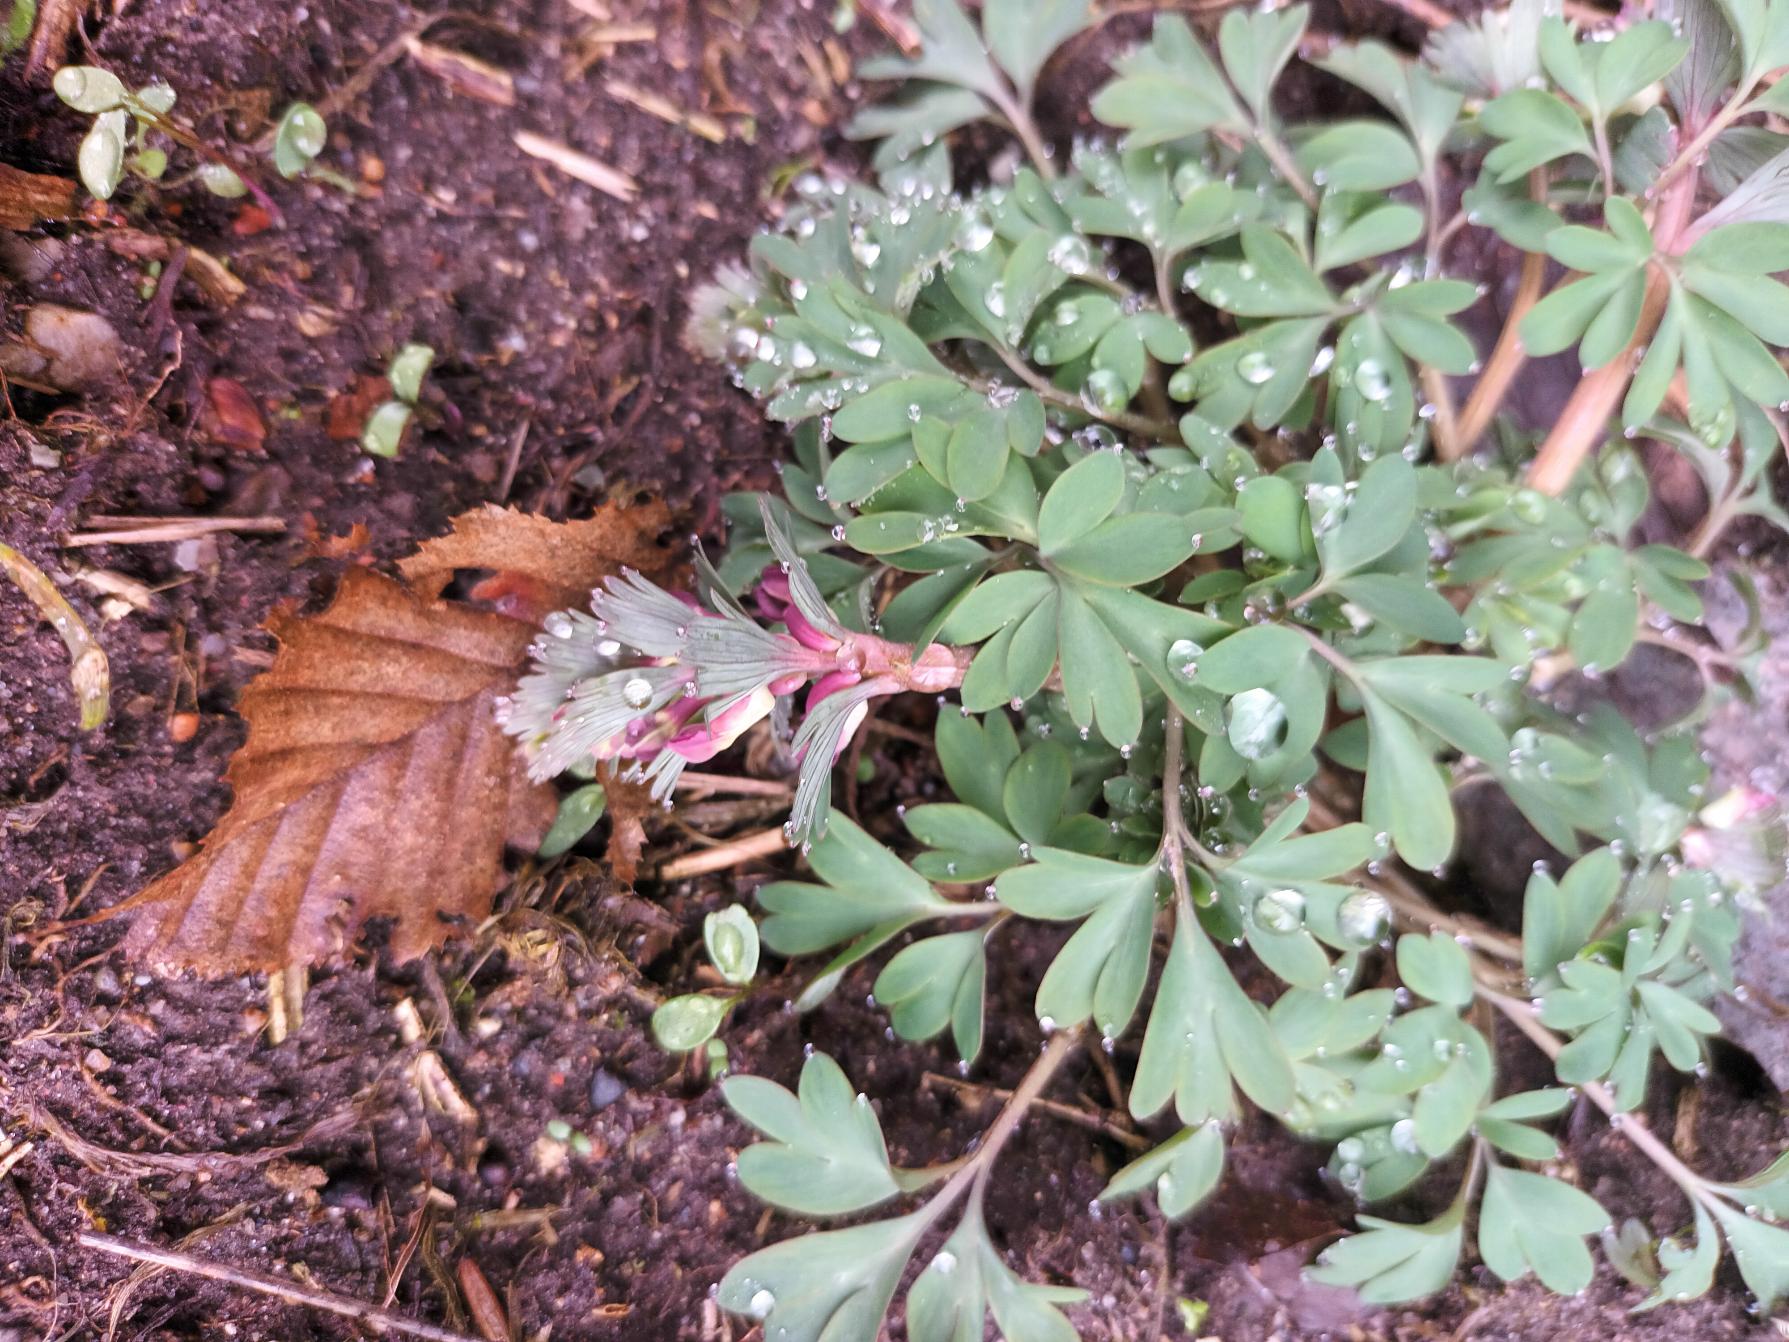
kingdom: Plantae
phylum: Tracheophyta
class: Magnoliopsida
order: Ranunculales
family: Papaveraceae
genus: Corydalis
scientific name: Corydalis solida
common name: Langstilket lærkespore
